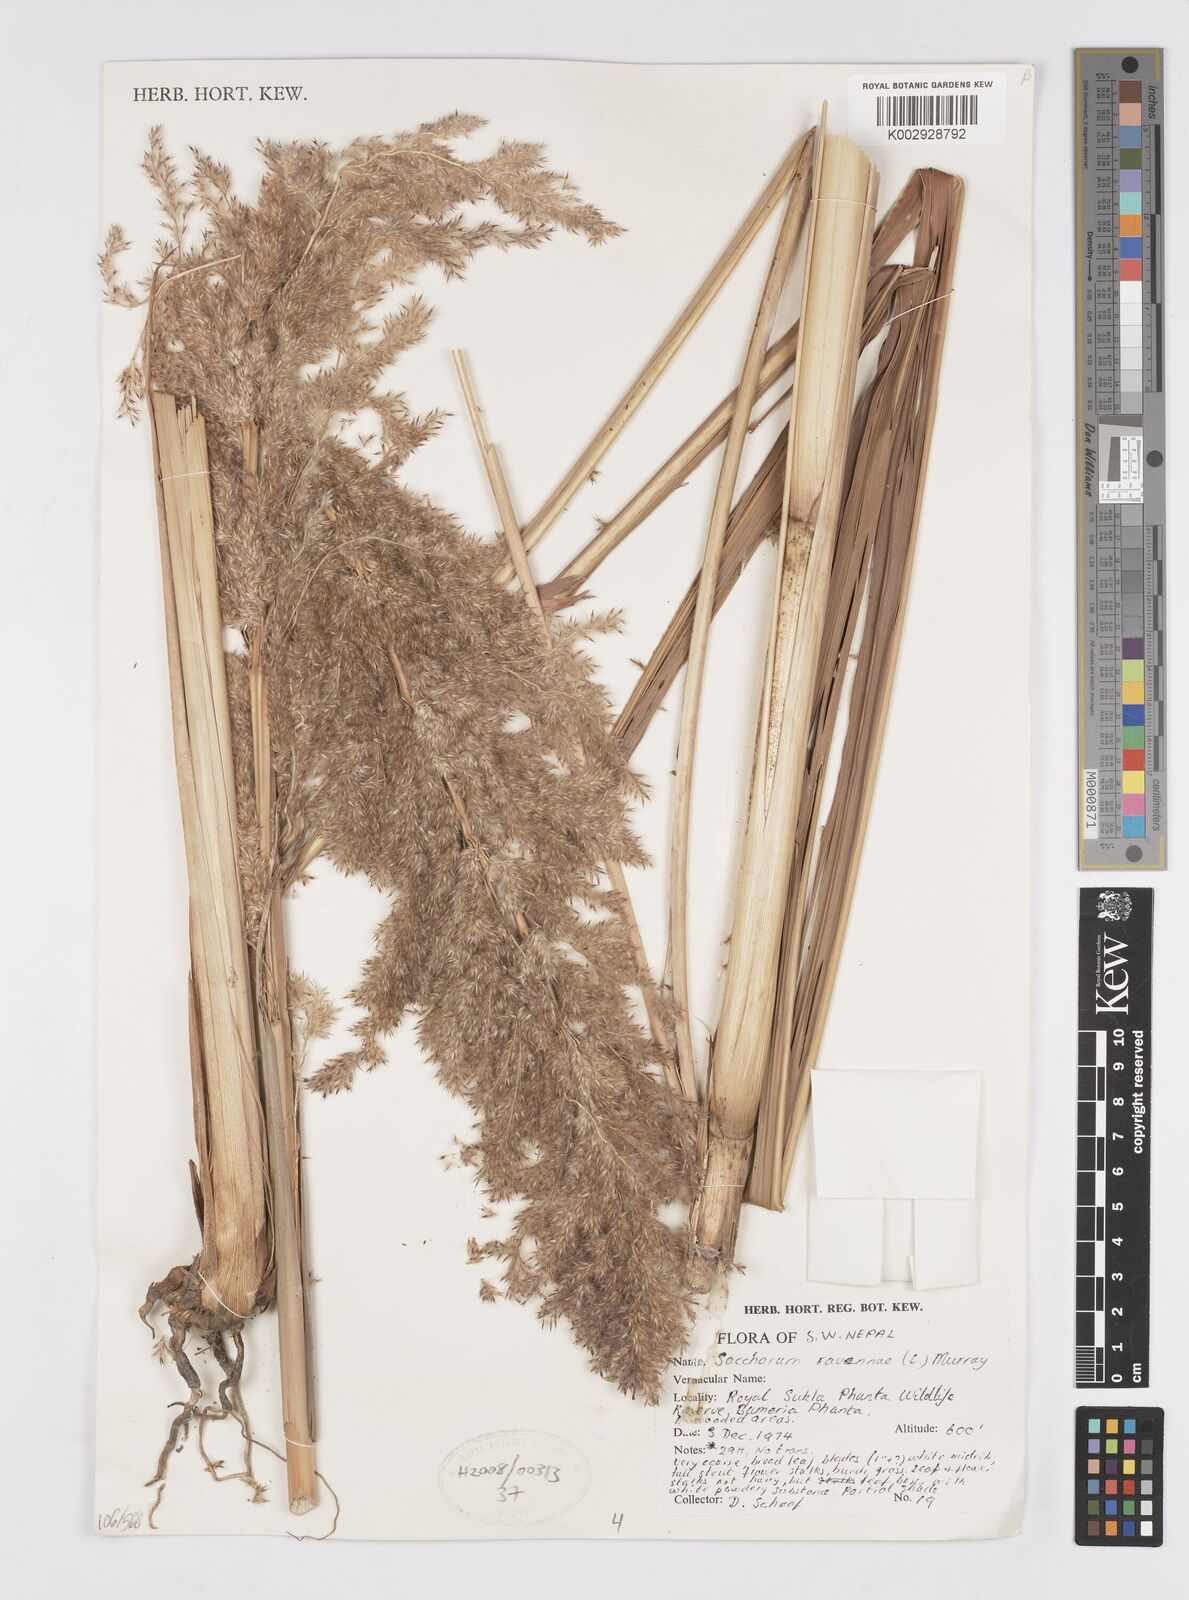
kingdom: Plantae
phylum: Tracheophyta
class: Liliopsida
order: Poales
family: Poaceae
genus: Tripidium
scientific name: Tripidium ravennae
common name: Ravenna grass
